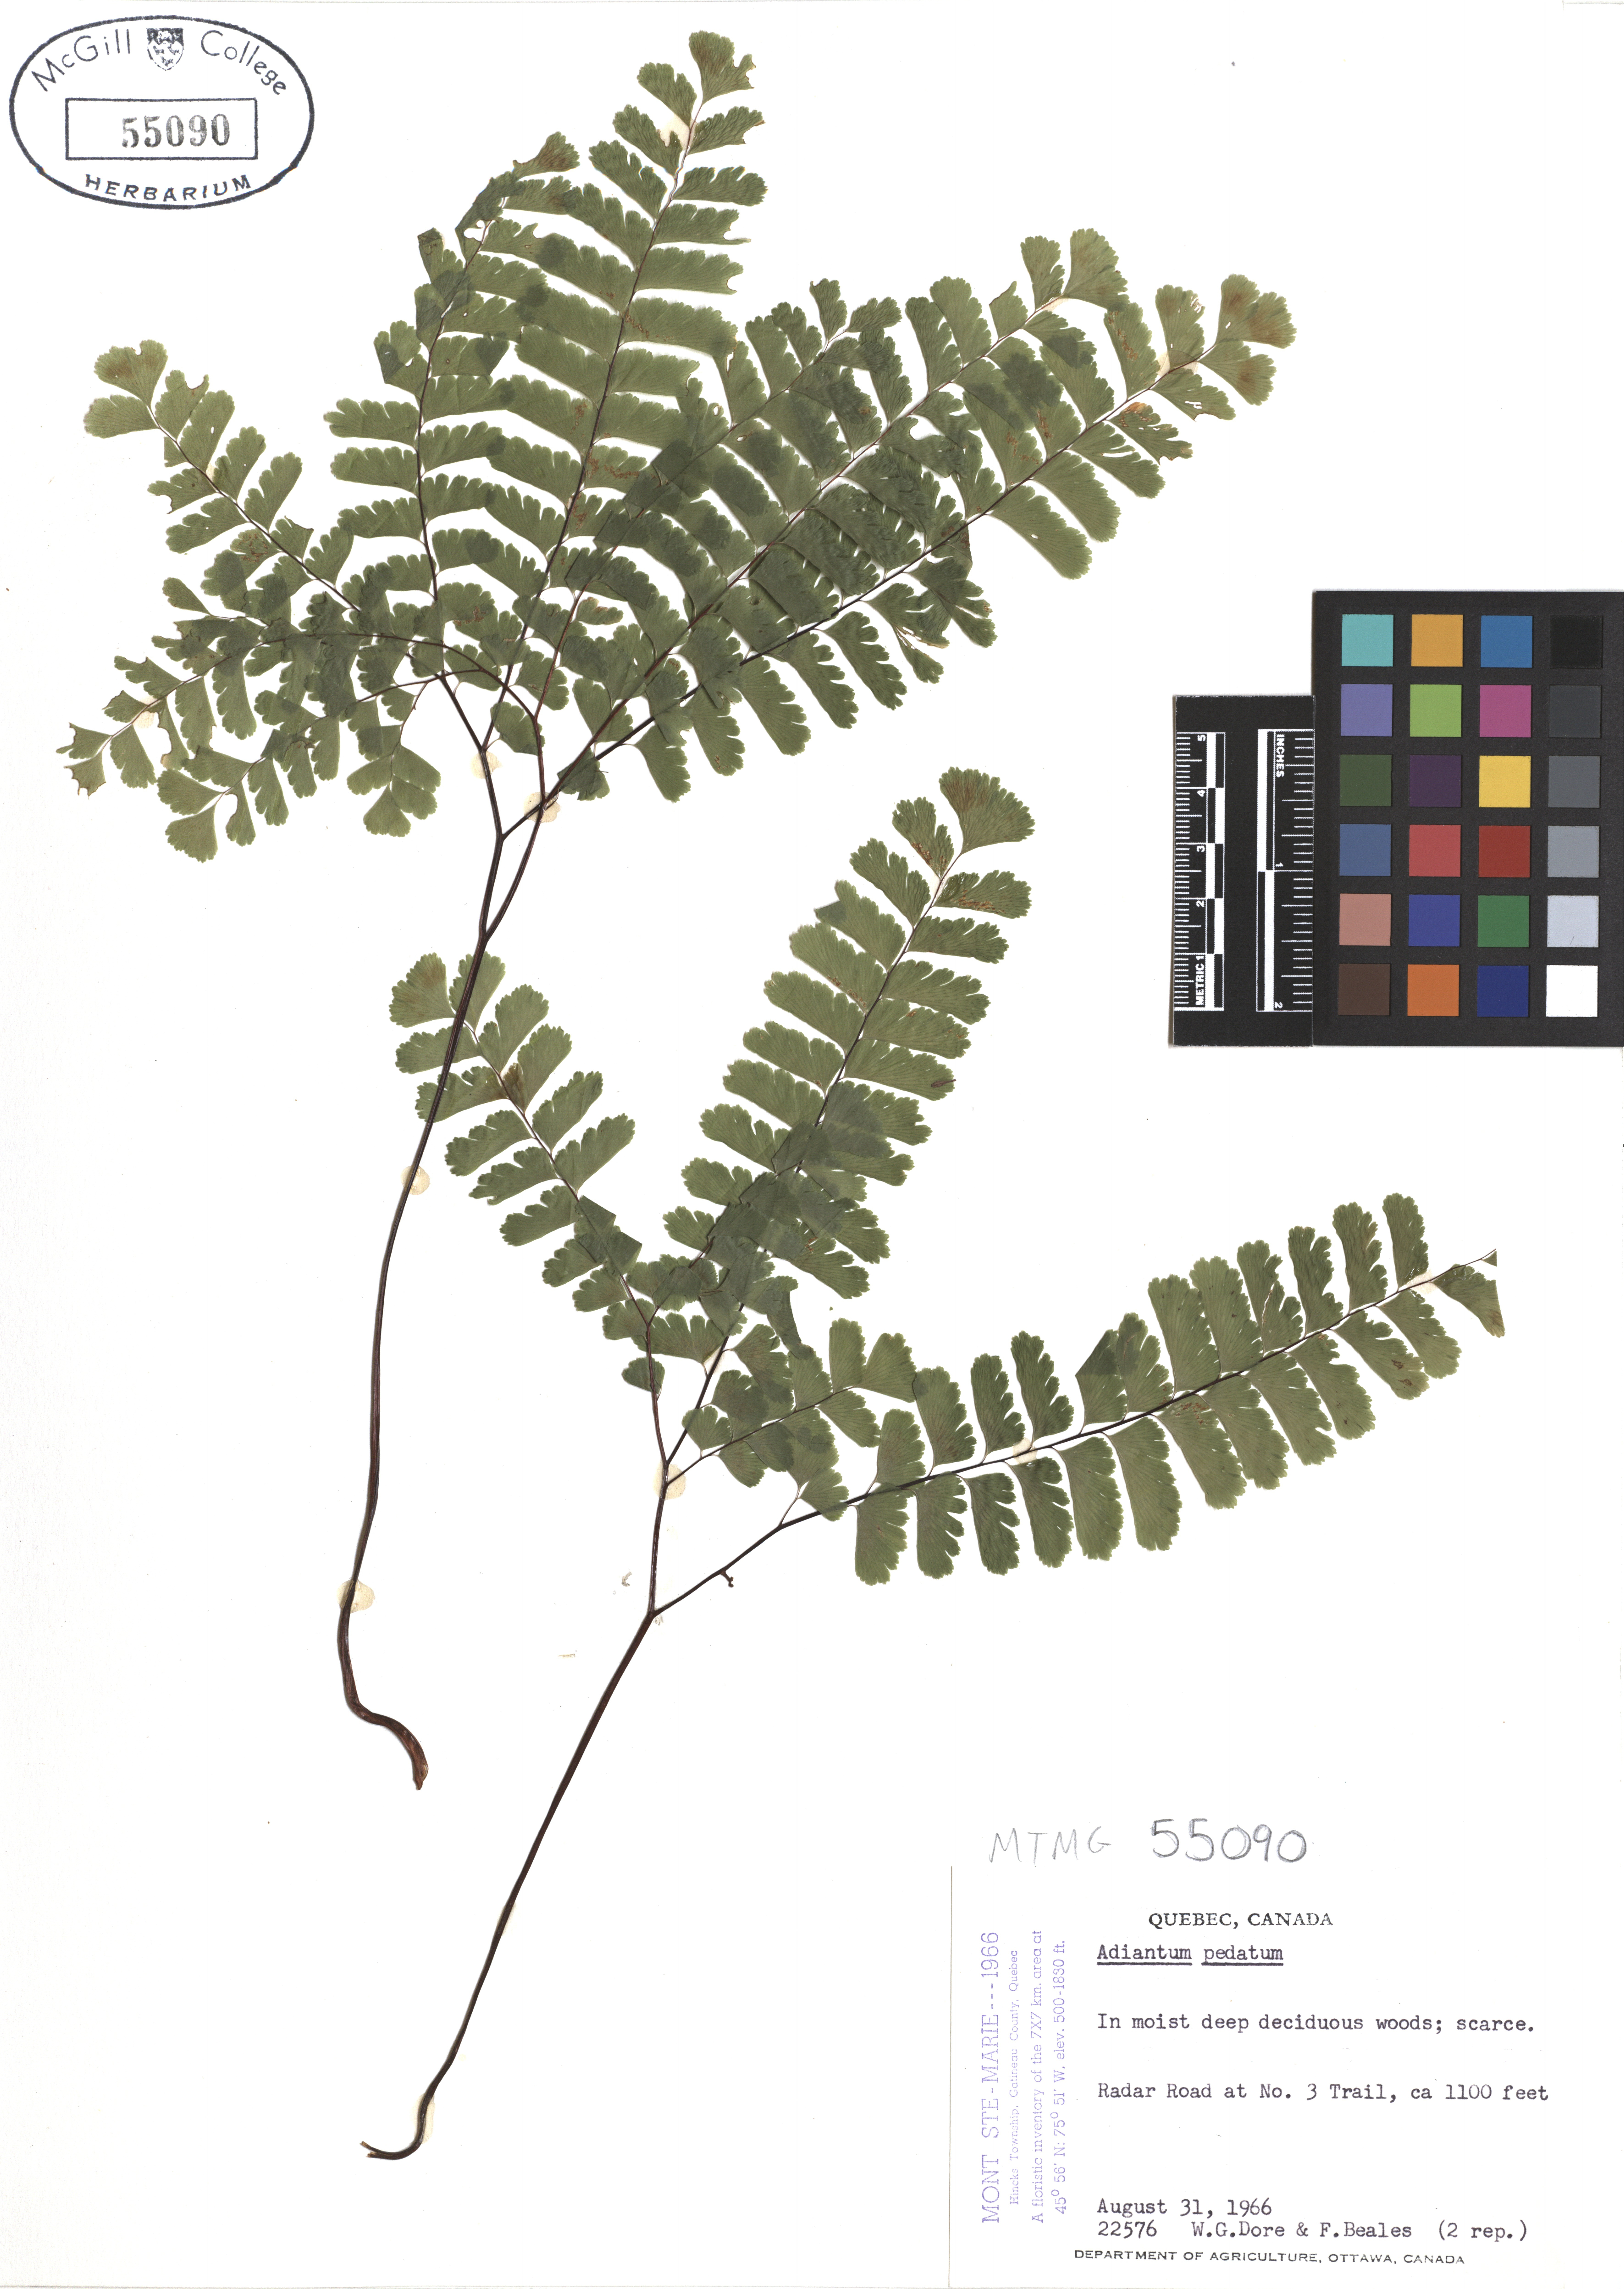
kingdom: Plantae
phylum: Tracheophyta
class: Polypodiopsida
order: Polypodiales
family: Pteridaceae
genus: Adiantum
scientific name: Adiantum pedatum
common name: Five-finger fern
